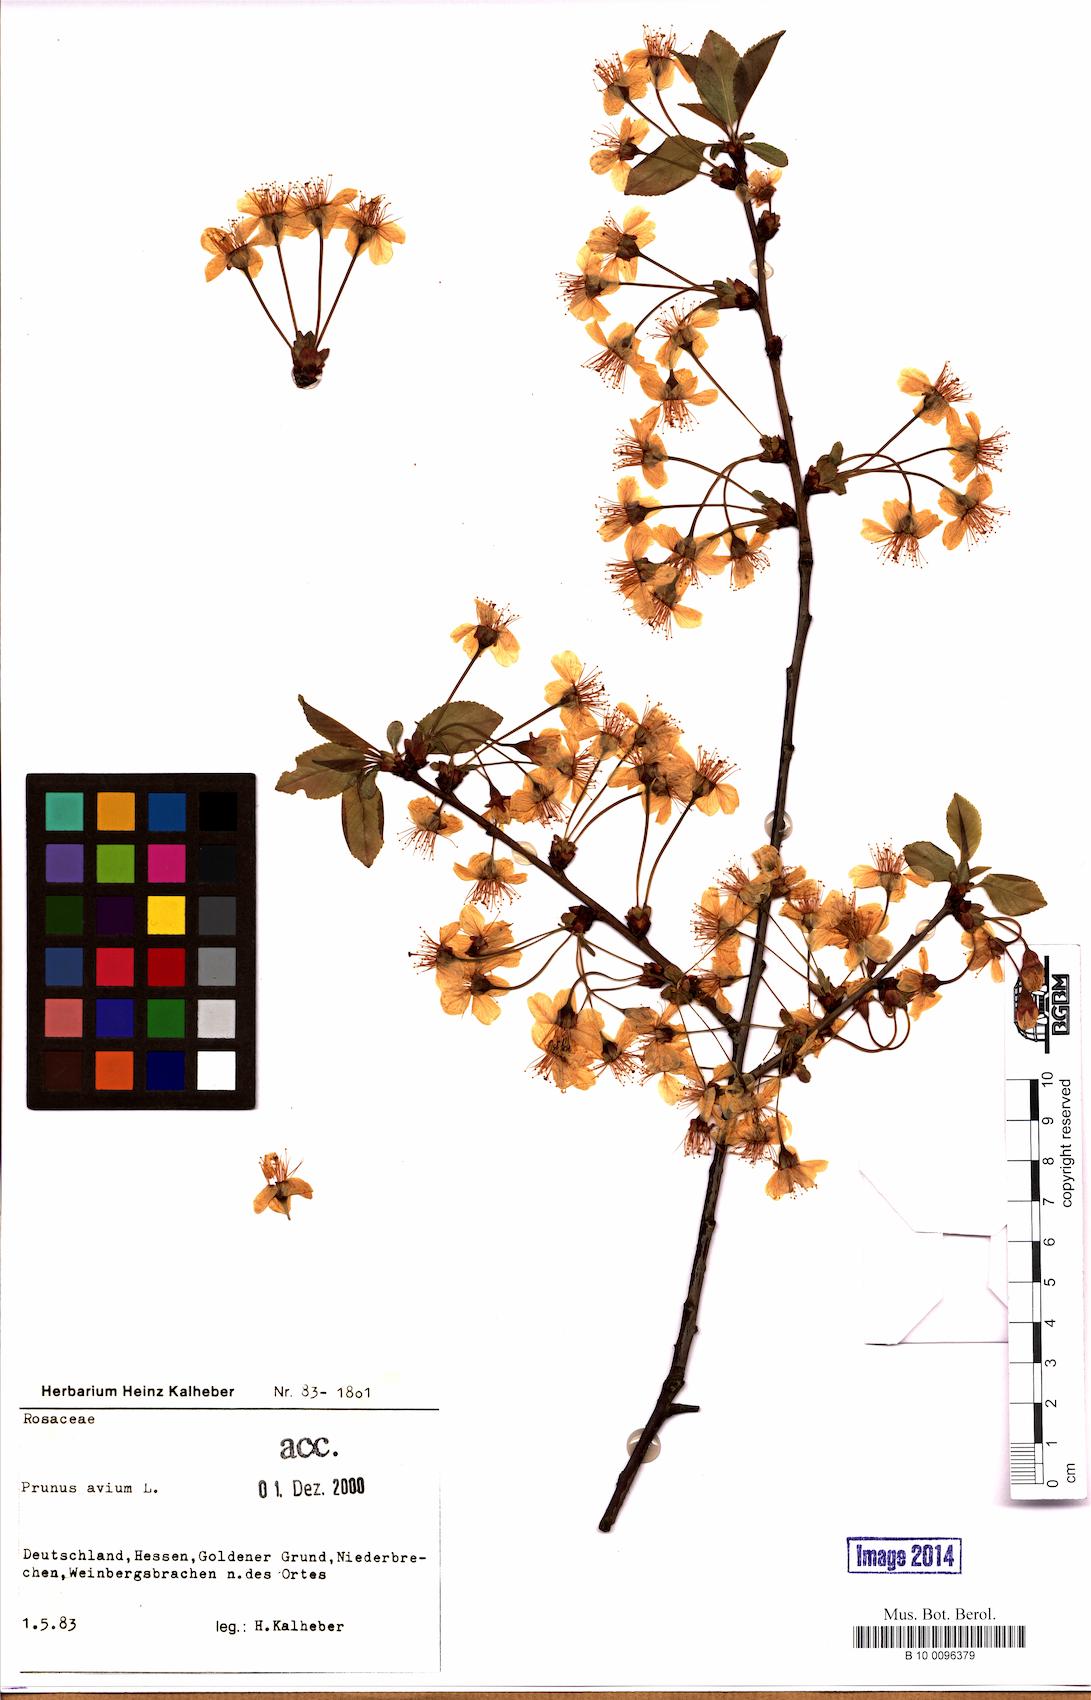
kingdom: Plantae
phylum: Tracheophyta
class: Magnoliopsida
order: Rosales
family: Rosaceae
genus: Prunus
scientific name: Prunus avium
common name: Sweet cherry
